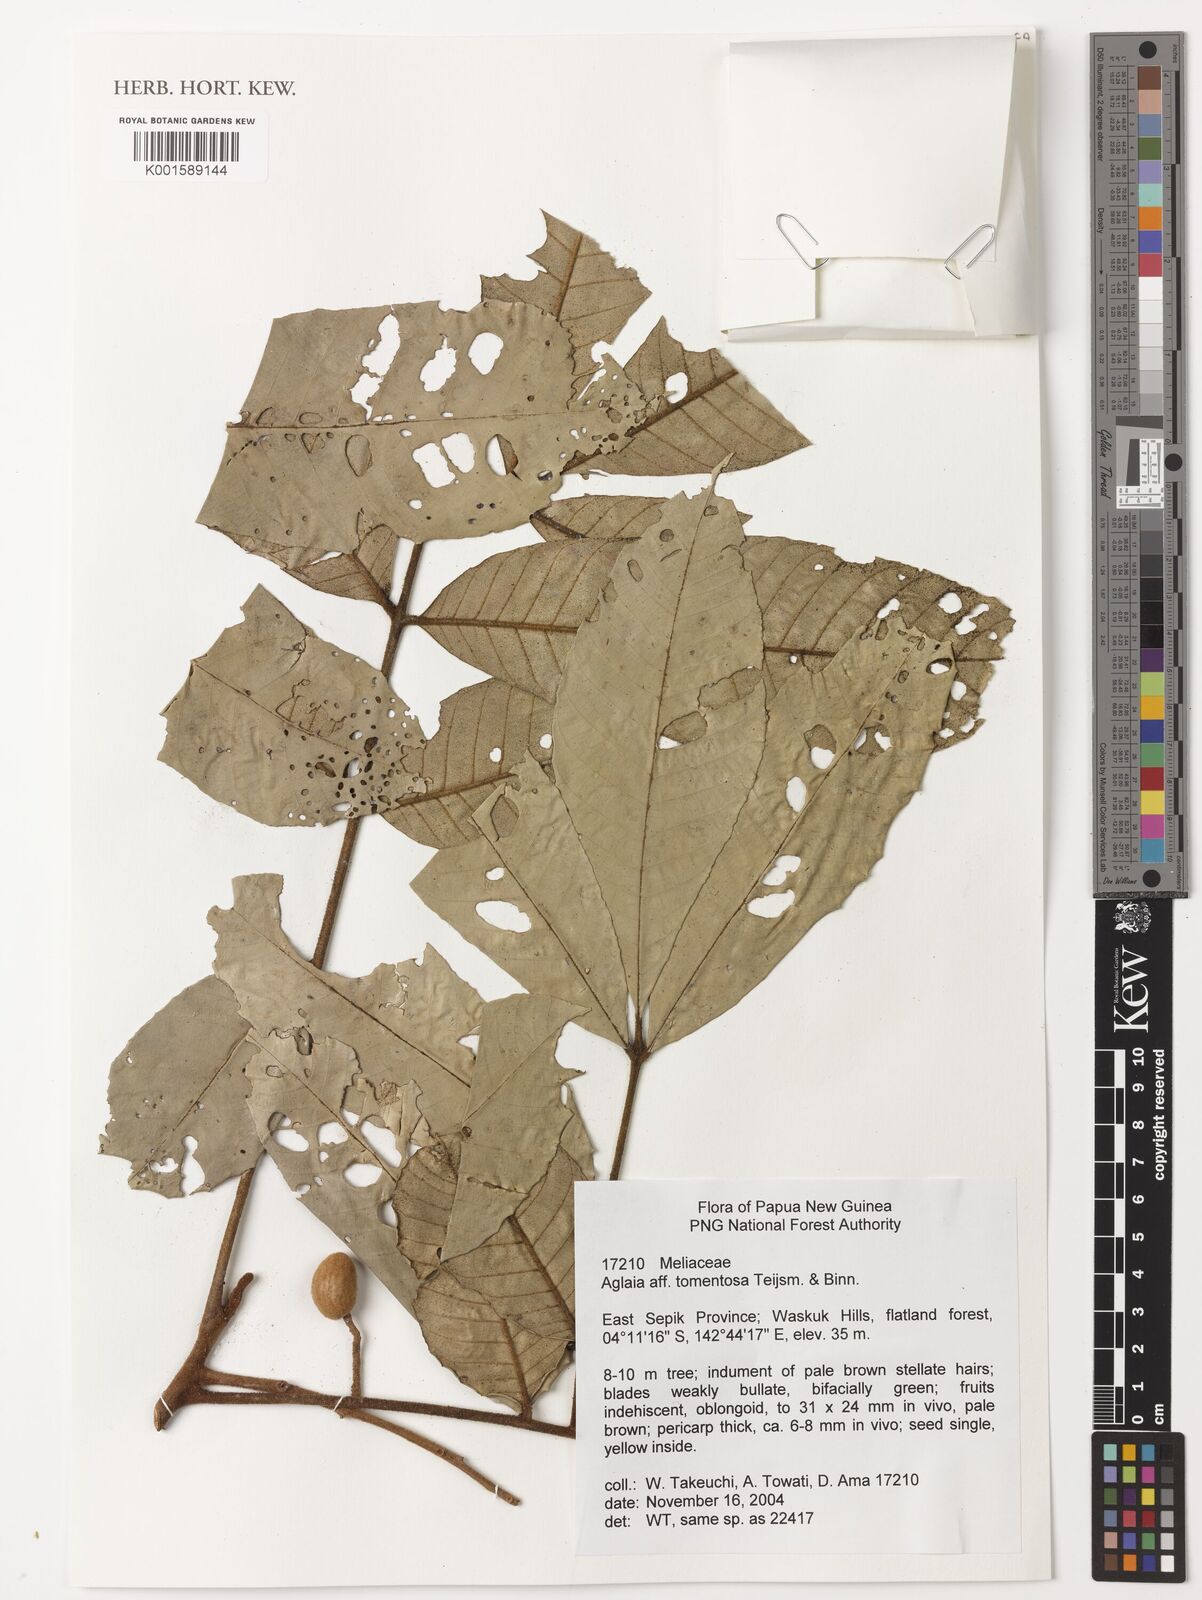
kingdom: Plantae
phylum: Tracheophyta
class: Magnoliopsida
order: Sapindales
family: Meliaceae
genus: Aglaia
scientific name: Aglaia tomentosa
